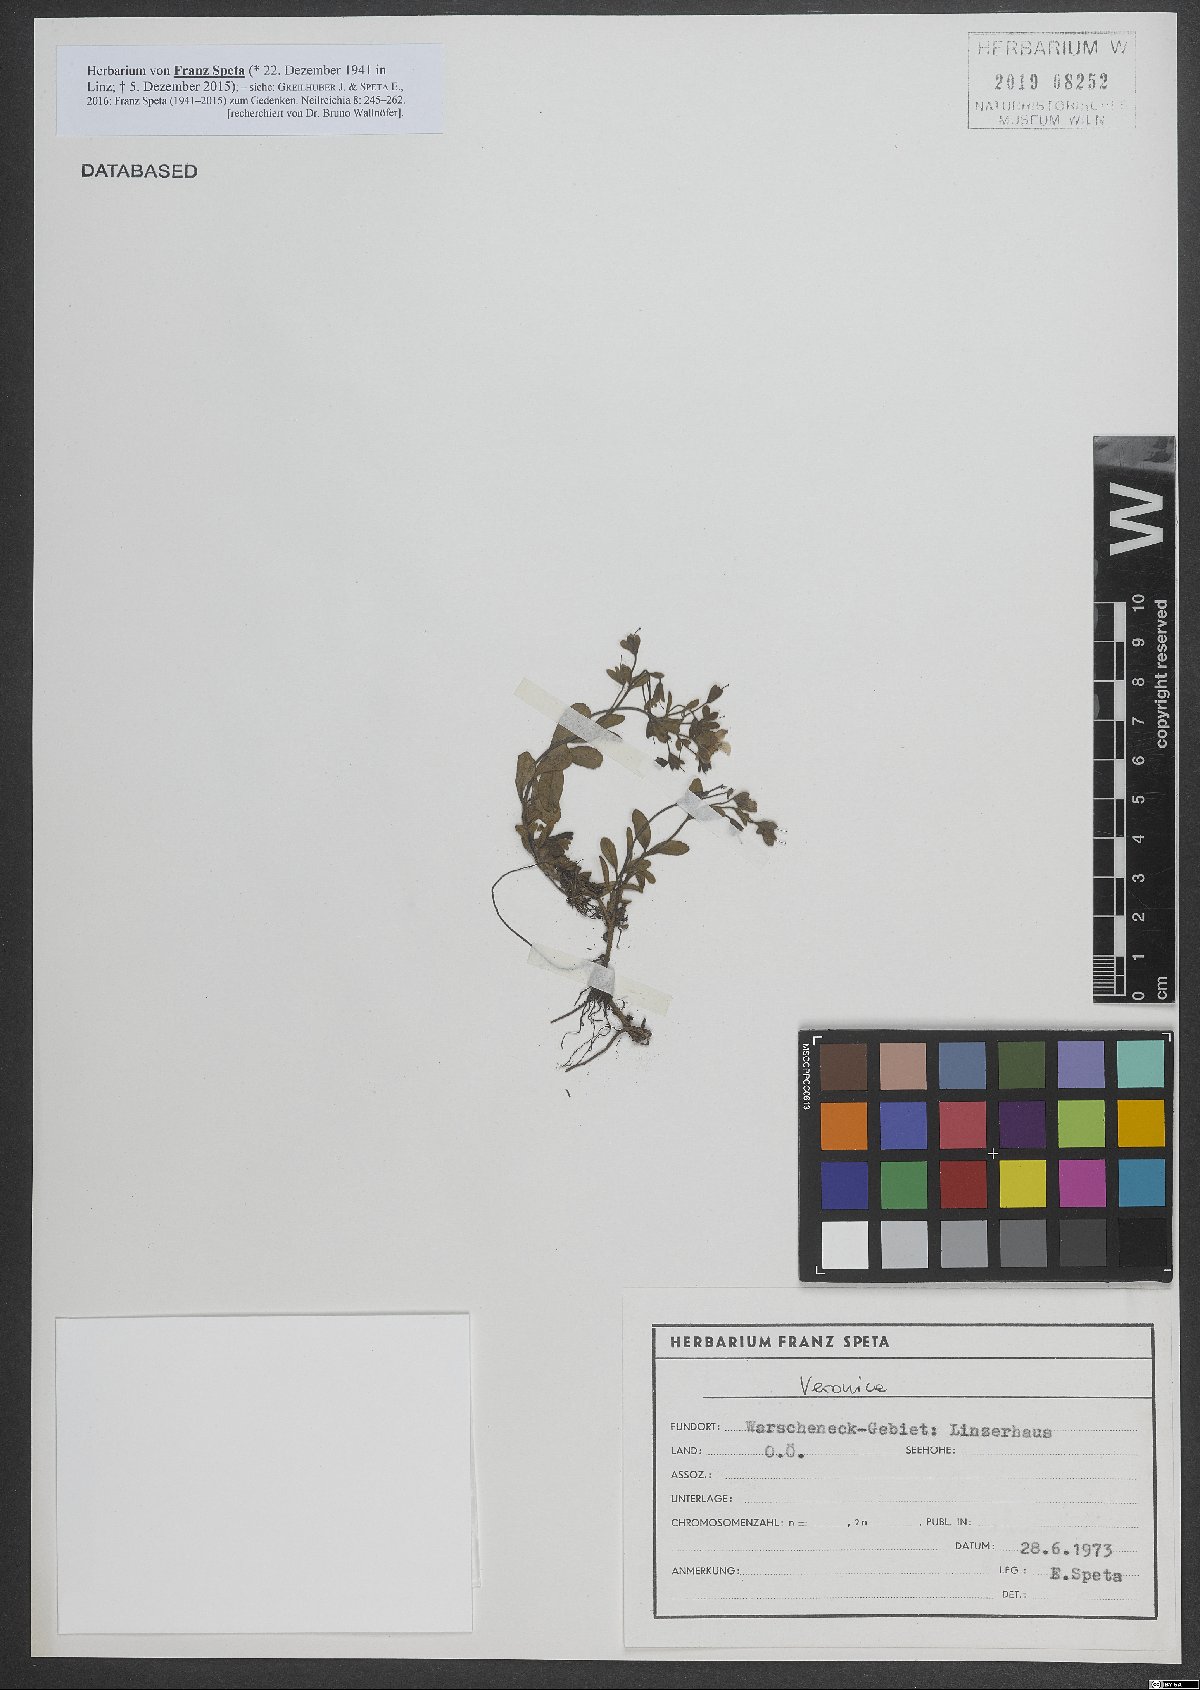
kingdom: Plantae
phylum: Tracheophyta
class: Magnoliopsida
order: Lamiales
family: Plantaginaceae
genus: Veronica
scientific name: Veronica
